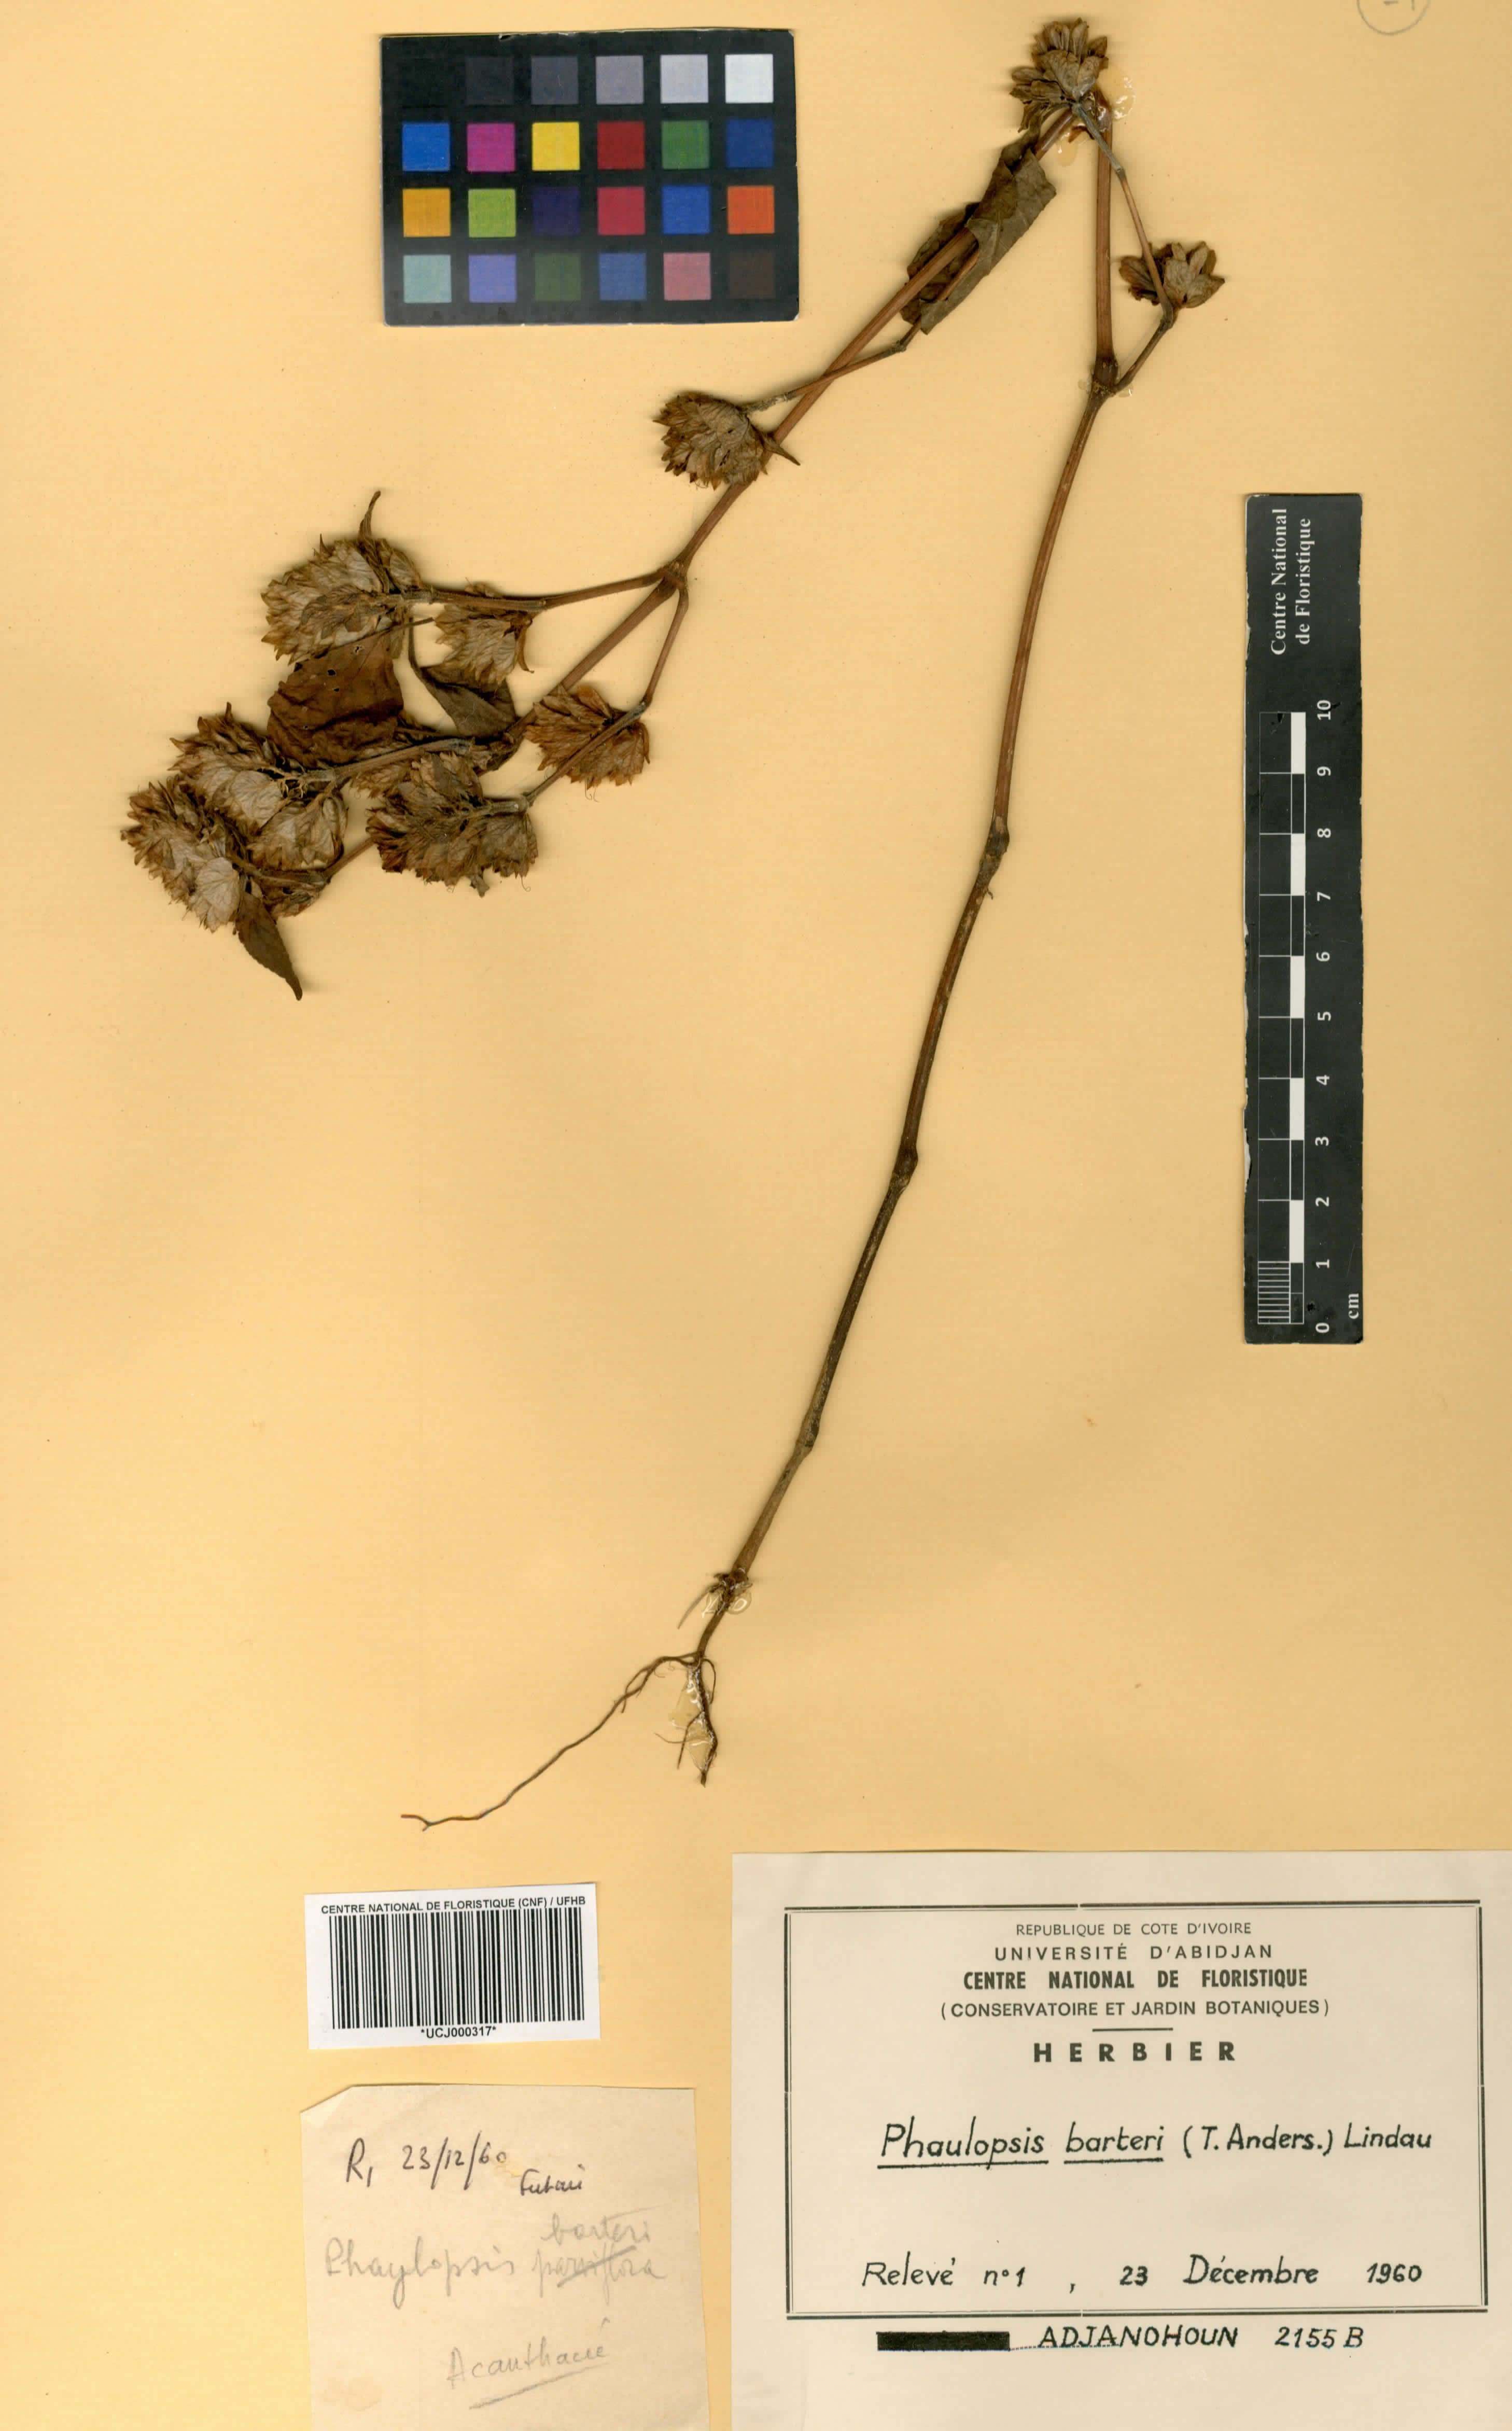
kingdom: Plantae
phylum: Tracheophyta
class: Magnoliopsida
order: Lamiales
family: Acanthaceae
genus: Phaulopsis
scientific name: Phaulopsis barteri
